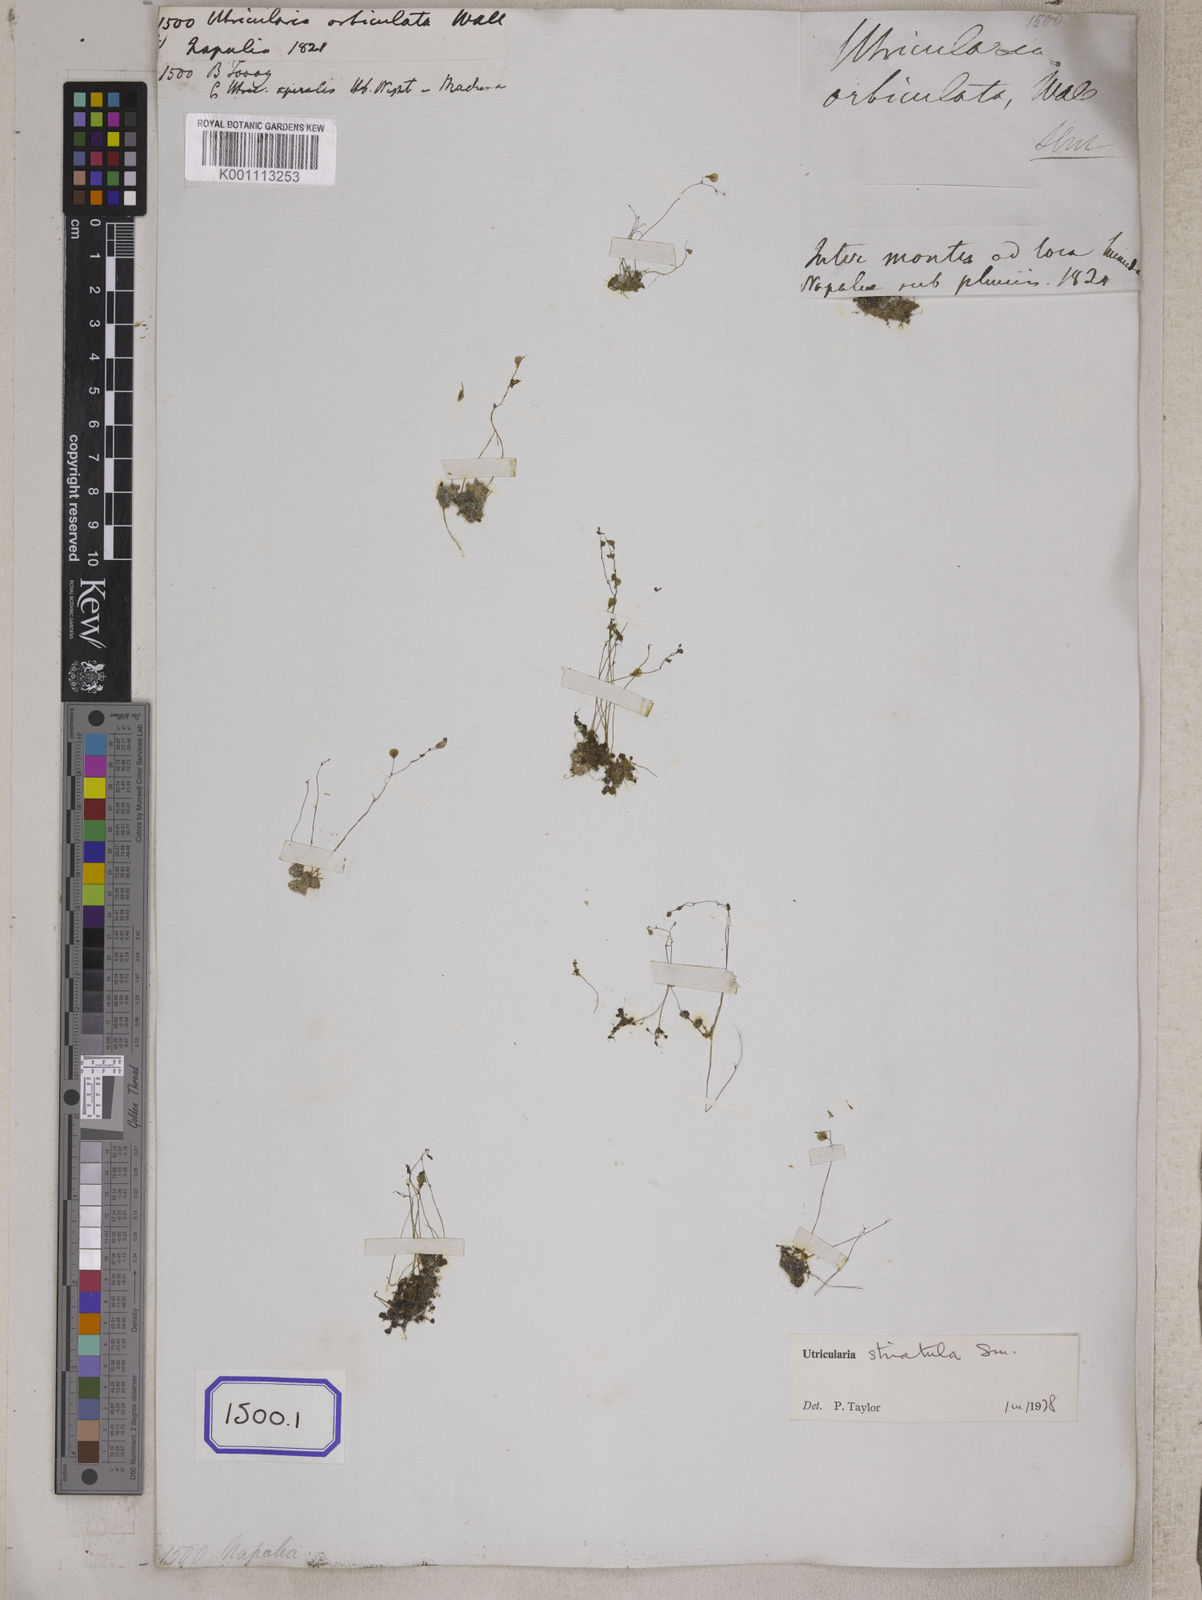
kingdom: Plantae
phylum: Tracheophyta
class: Magnoliopsida
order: Lamiales
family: Lentibulariaceae
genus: Utricularia
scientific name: Utricularia
